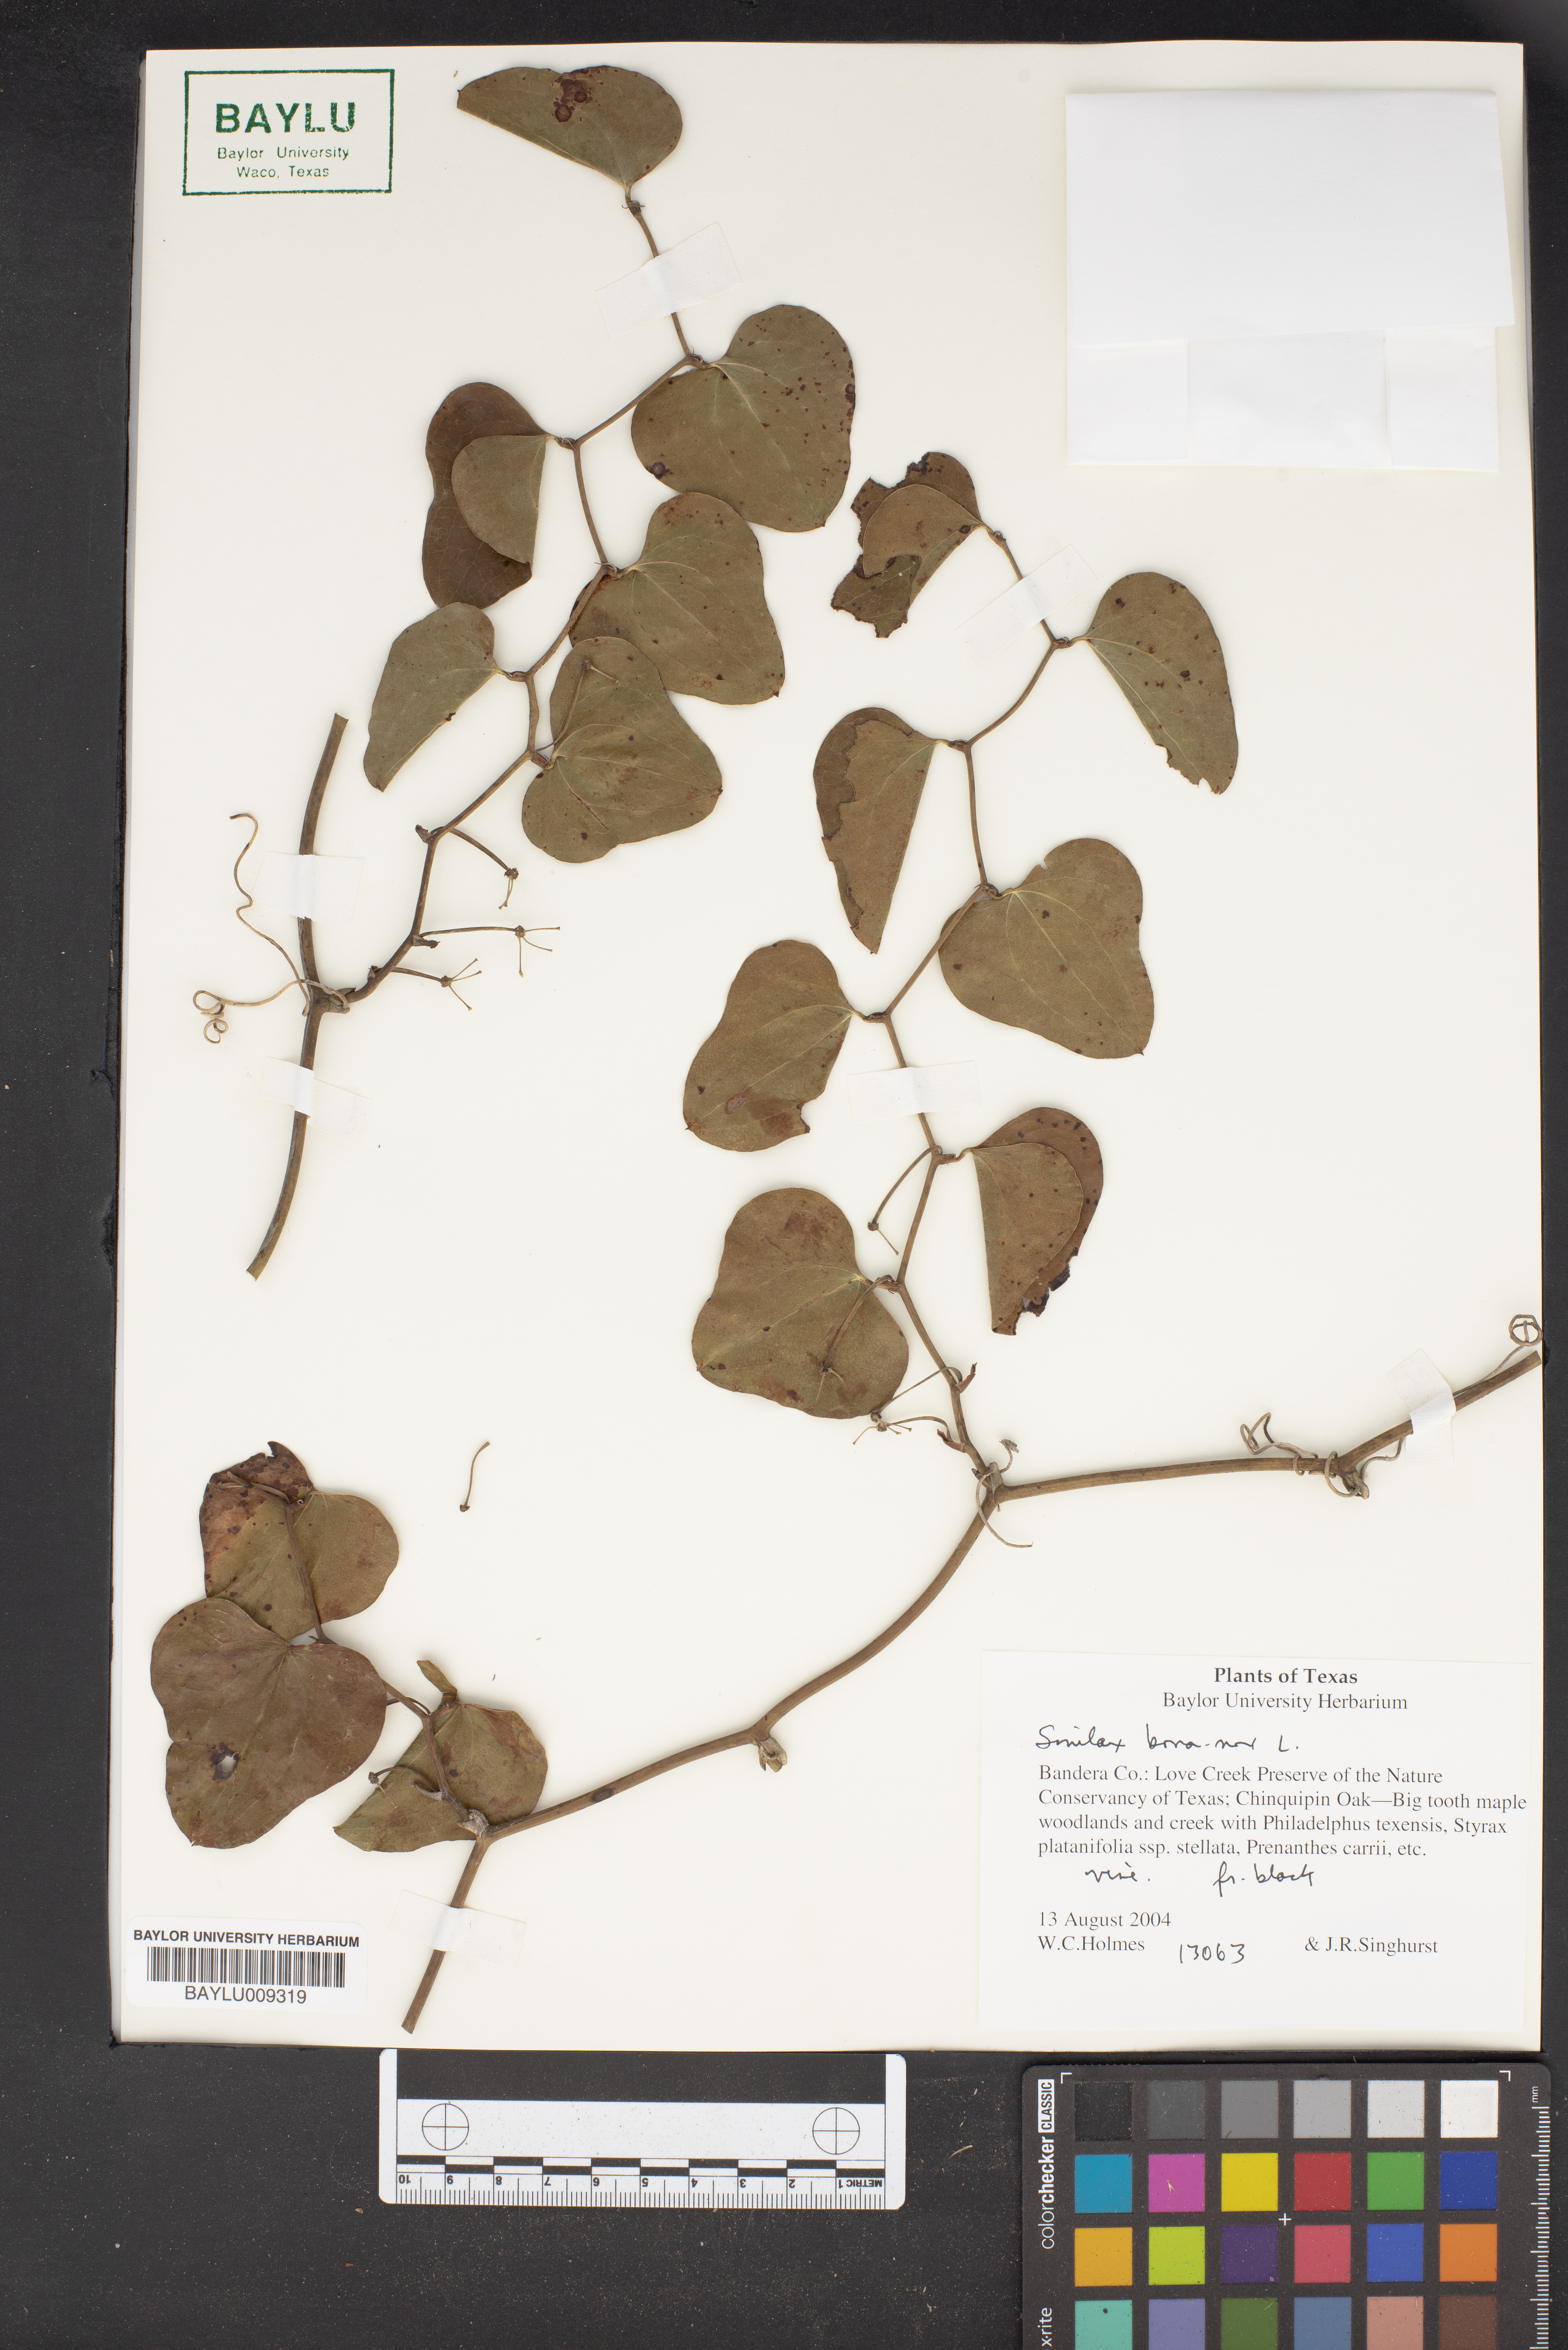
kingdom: Plantae
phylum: Tracheophyta
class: Liliopsida
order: Liliales
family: Smilacaceae
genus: Smilax
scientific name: Smilax bona-nox
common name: Catbrier
